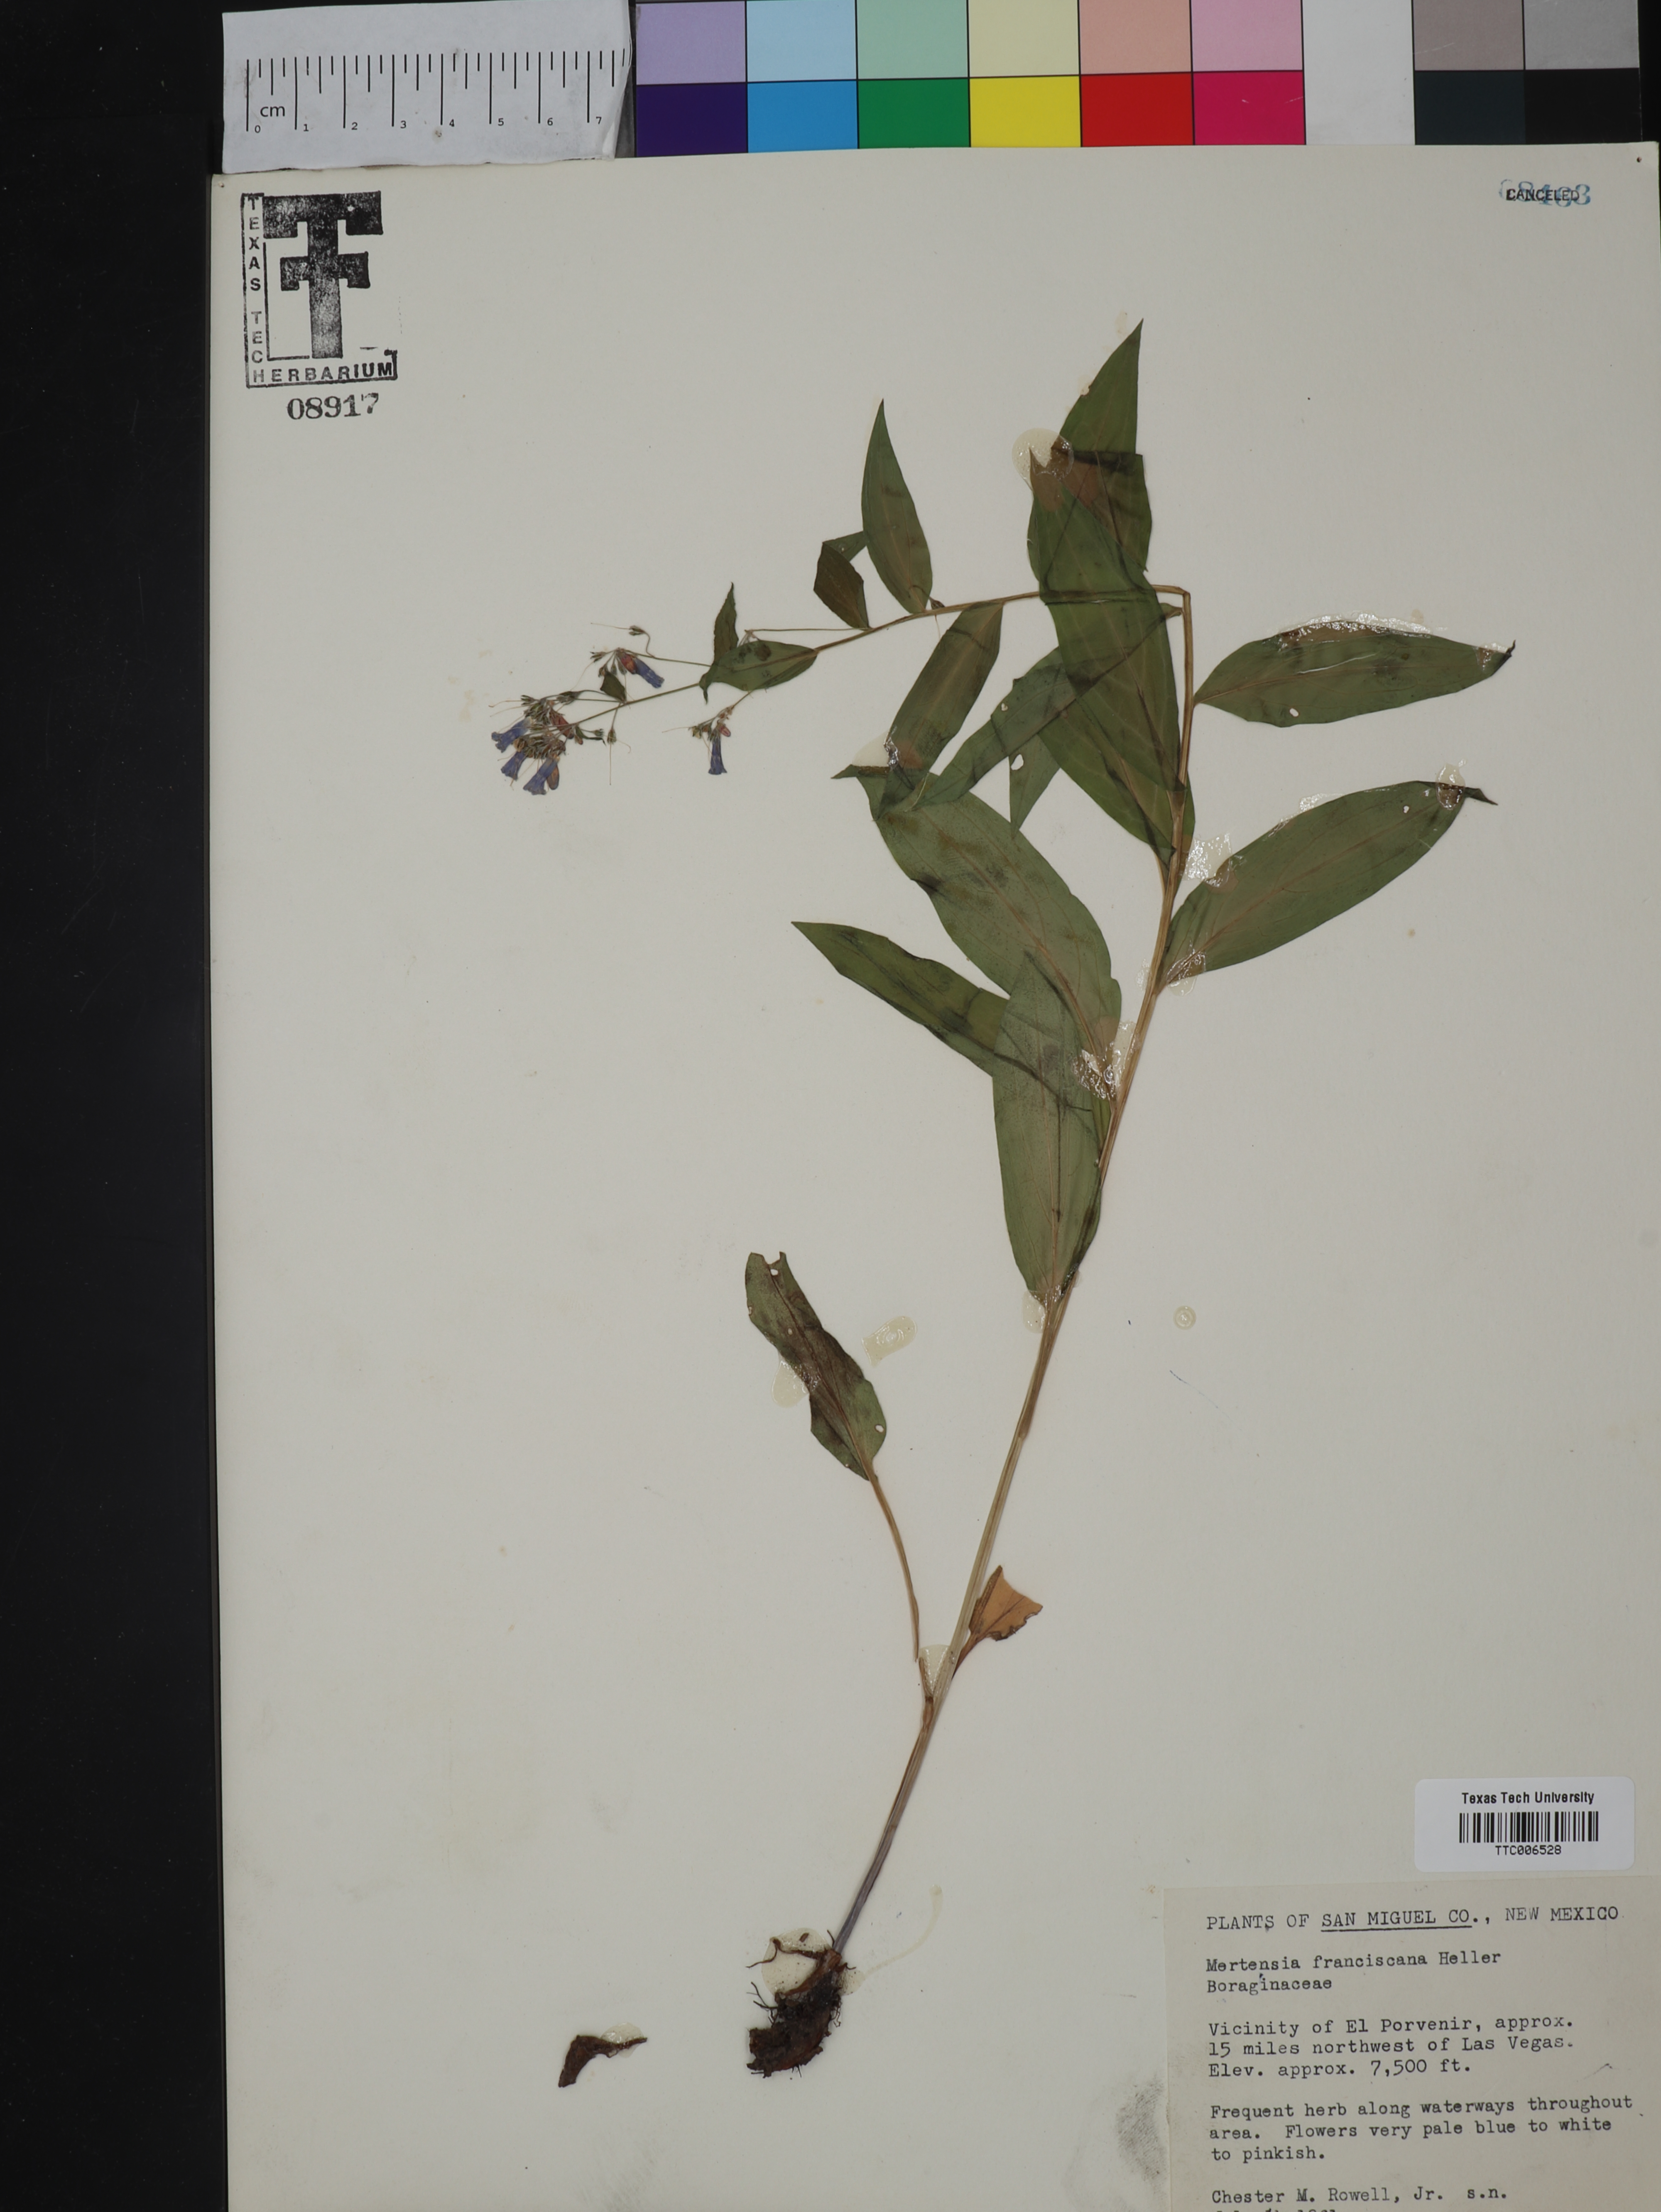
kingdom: Plantae
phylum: Tracheophyta
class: Magnoliopsida
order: Boraginales
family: Boraginaceae
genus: Mertensia
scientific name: Mertensia franciscana
